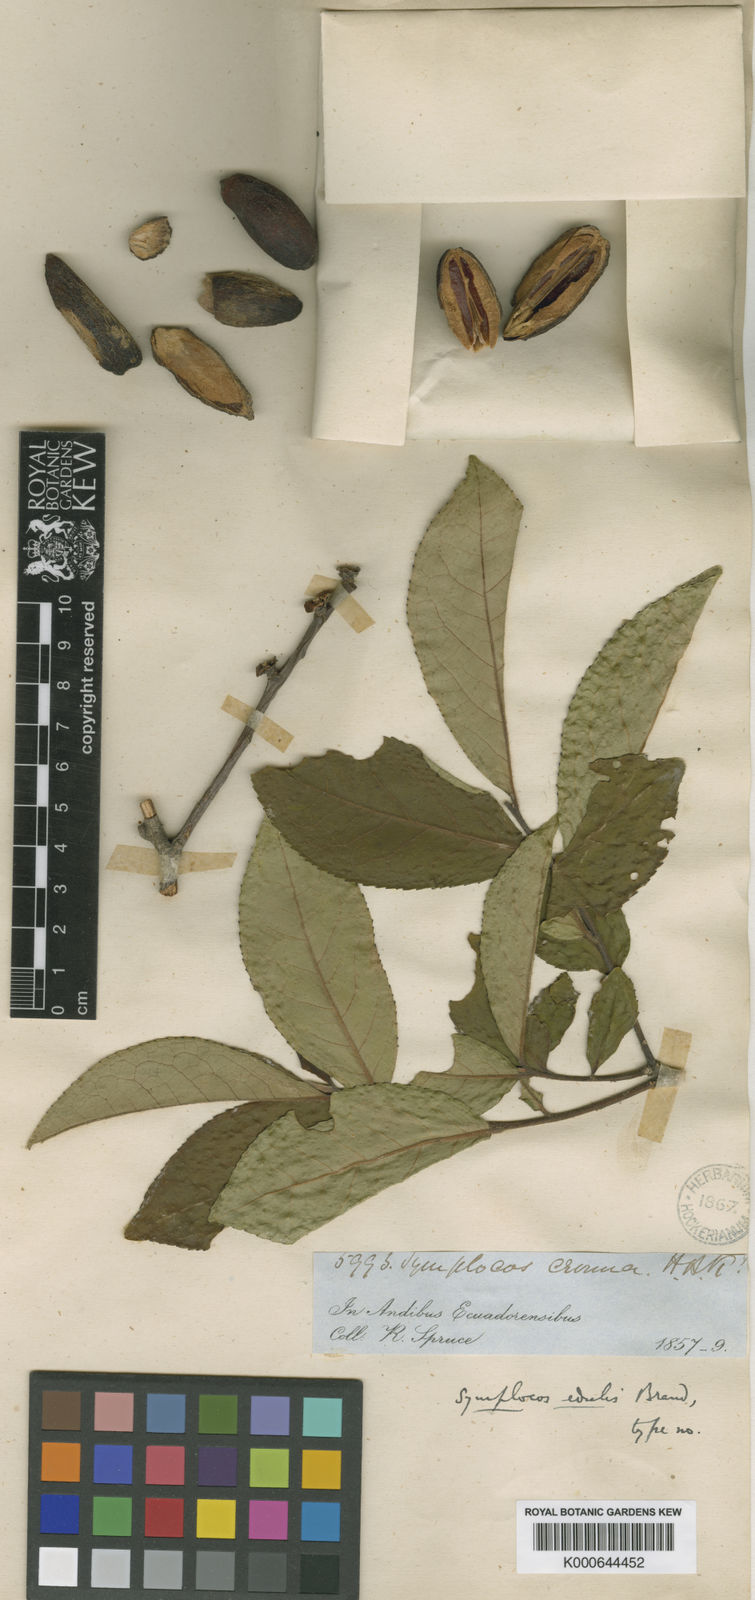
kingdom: Plantae
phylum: Tracheophyta
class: Magnoliopsida
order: Ericales
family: Symplocaceae
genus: Symplocos
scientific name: Symplocos nuda
